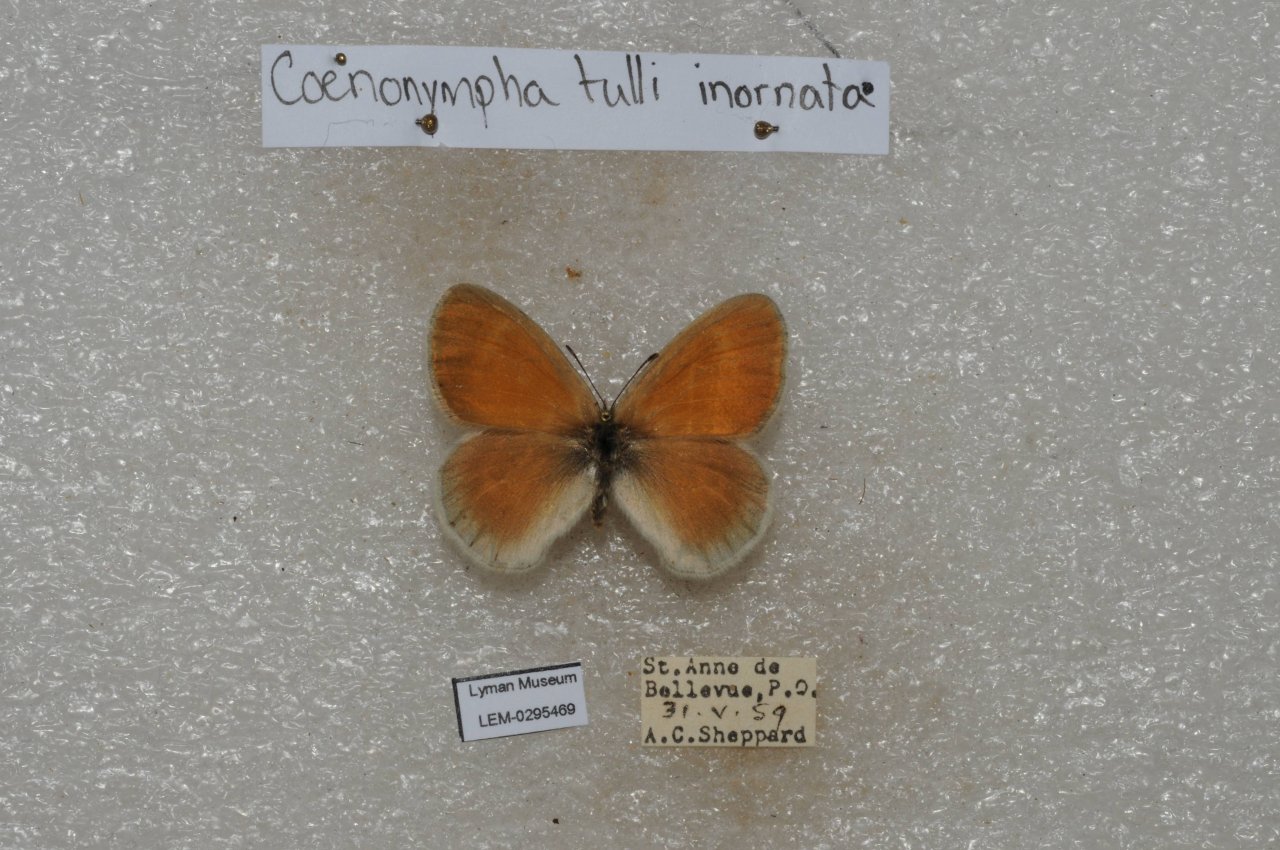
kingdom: Animalia
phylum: Arthropoda
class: Insecta
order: Lepidoptera
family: Nymphalidae
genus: Coenonympha
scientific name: Coenonympha tullia
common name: Large Heath
